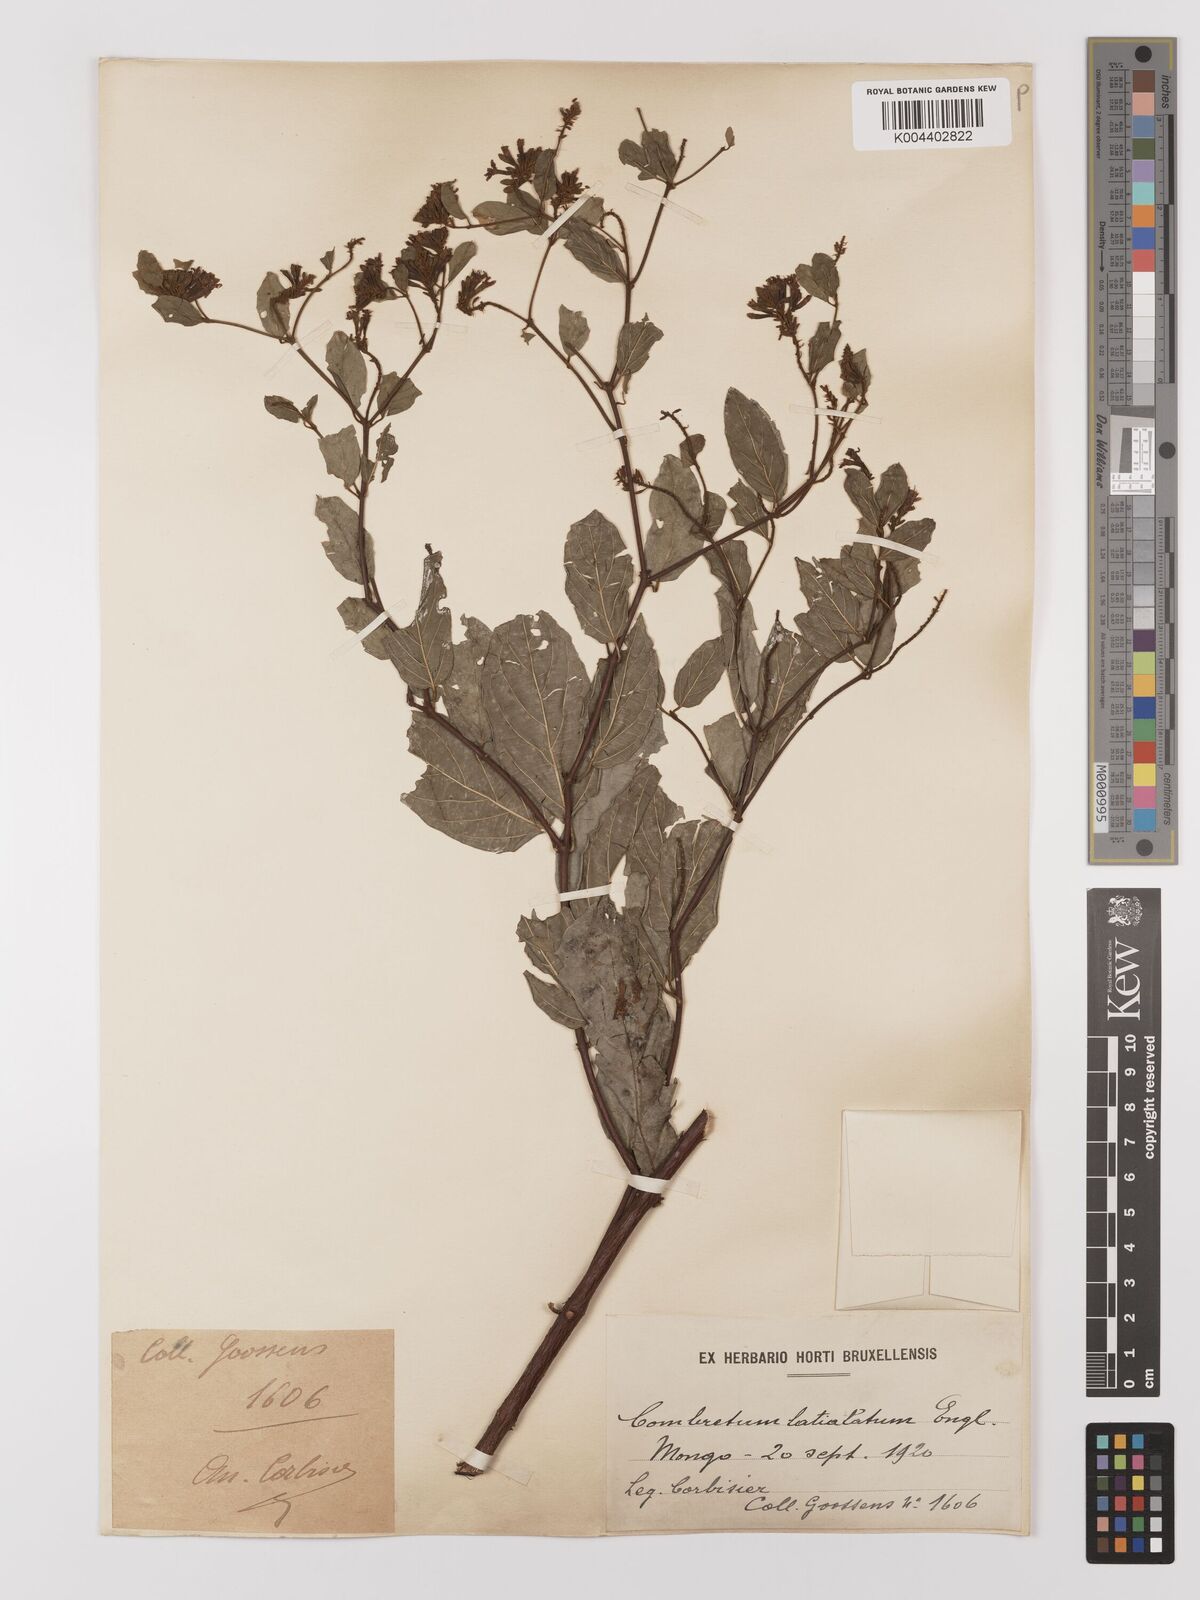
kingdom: Plantae
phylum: Tracheophyta
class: Magnoliopsida
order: Myrtales
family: Combretaceae
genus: Combretum
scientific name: Combretum latialatum
